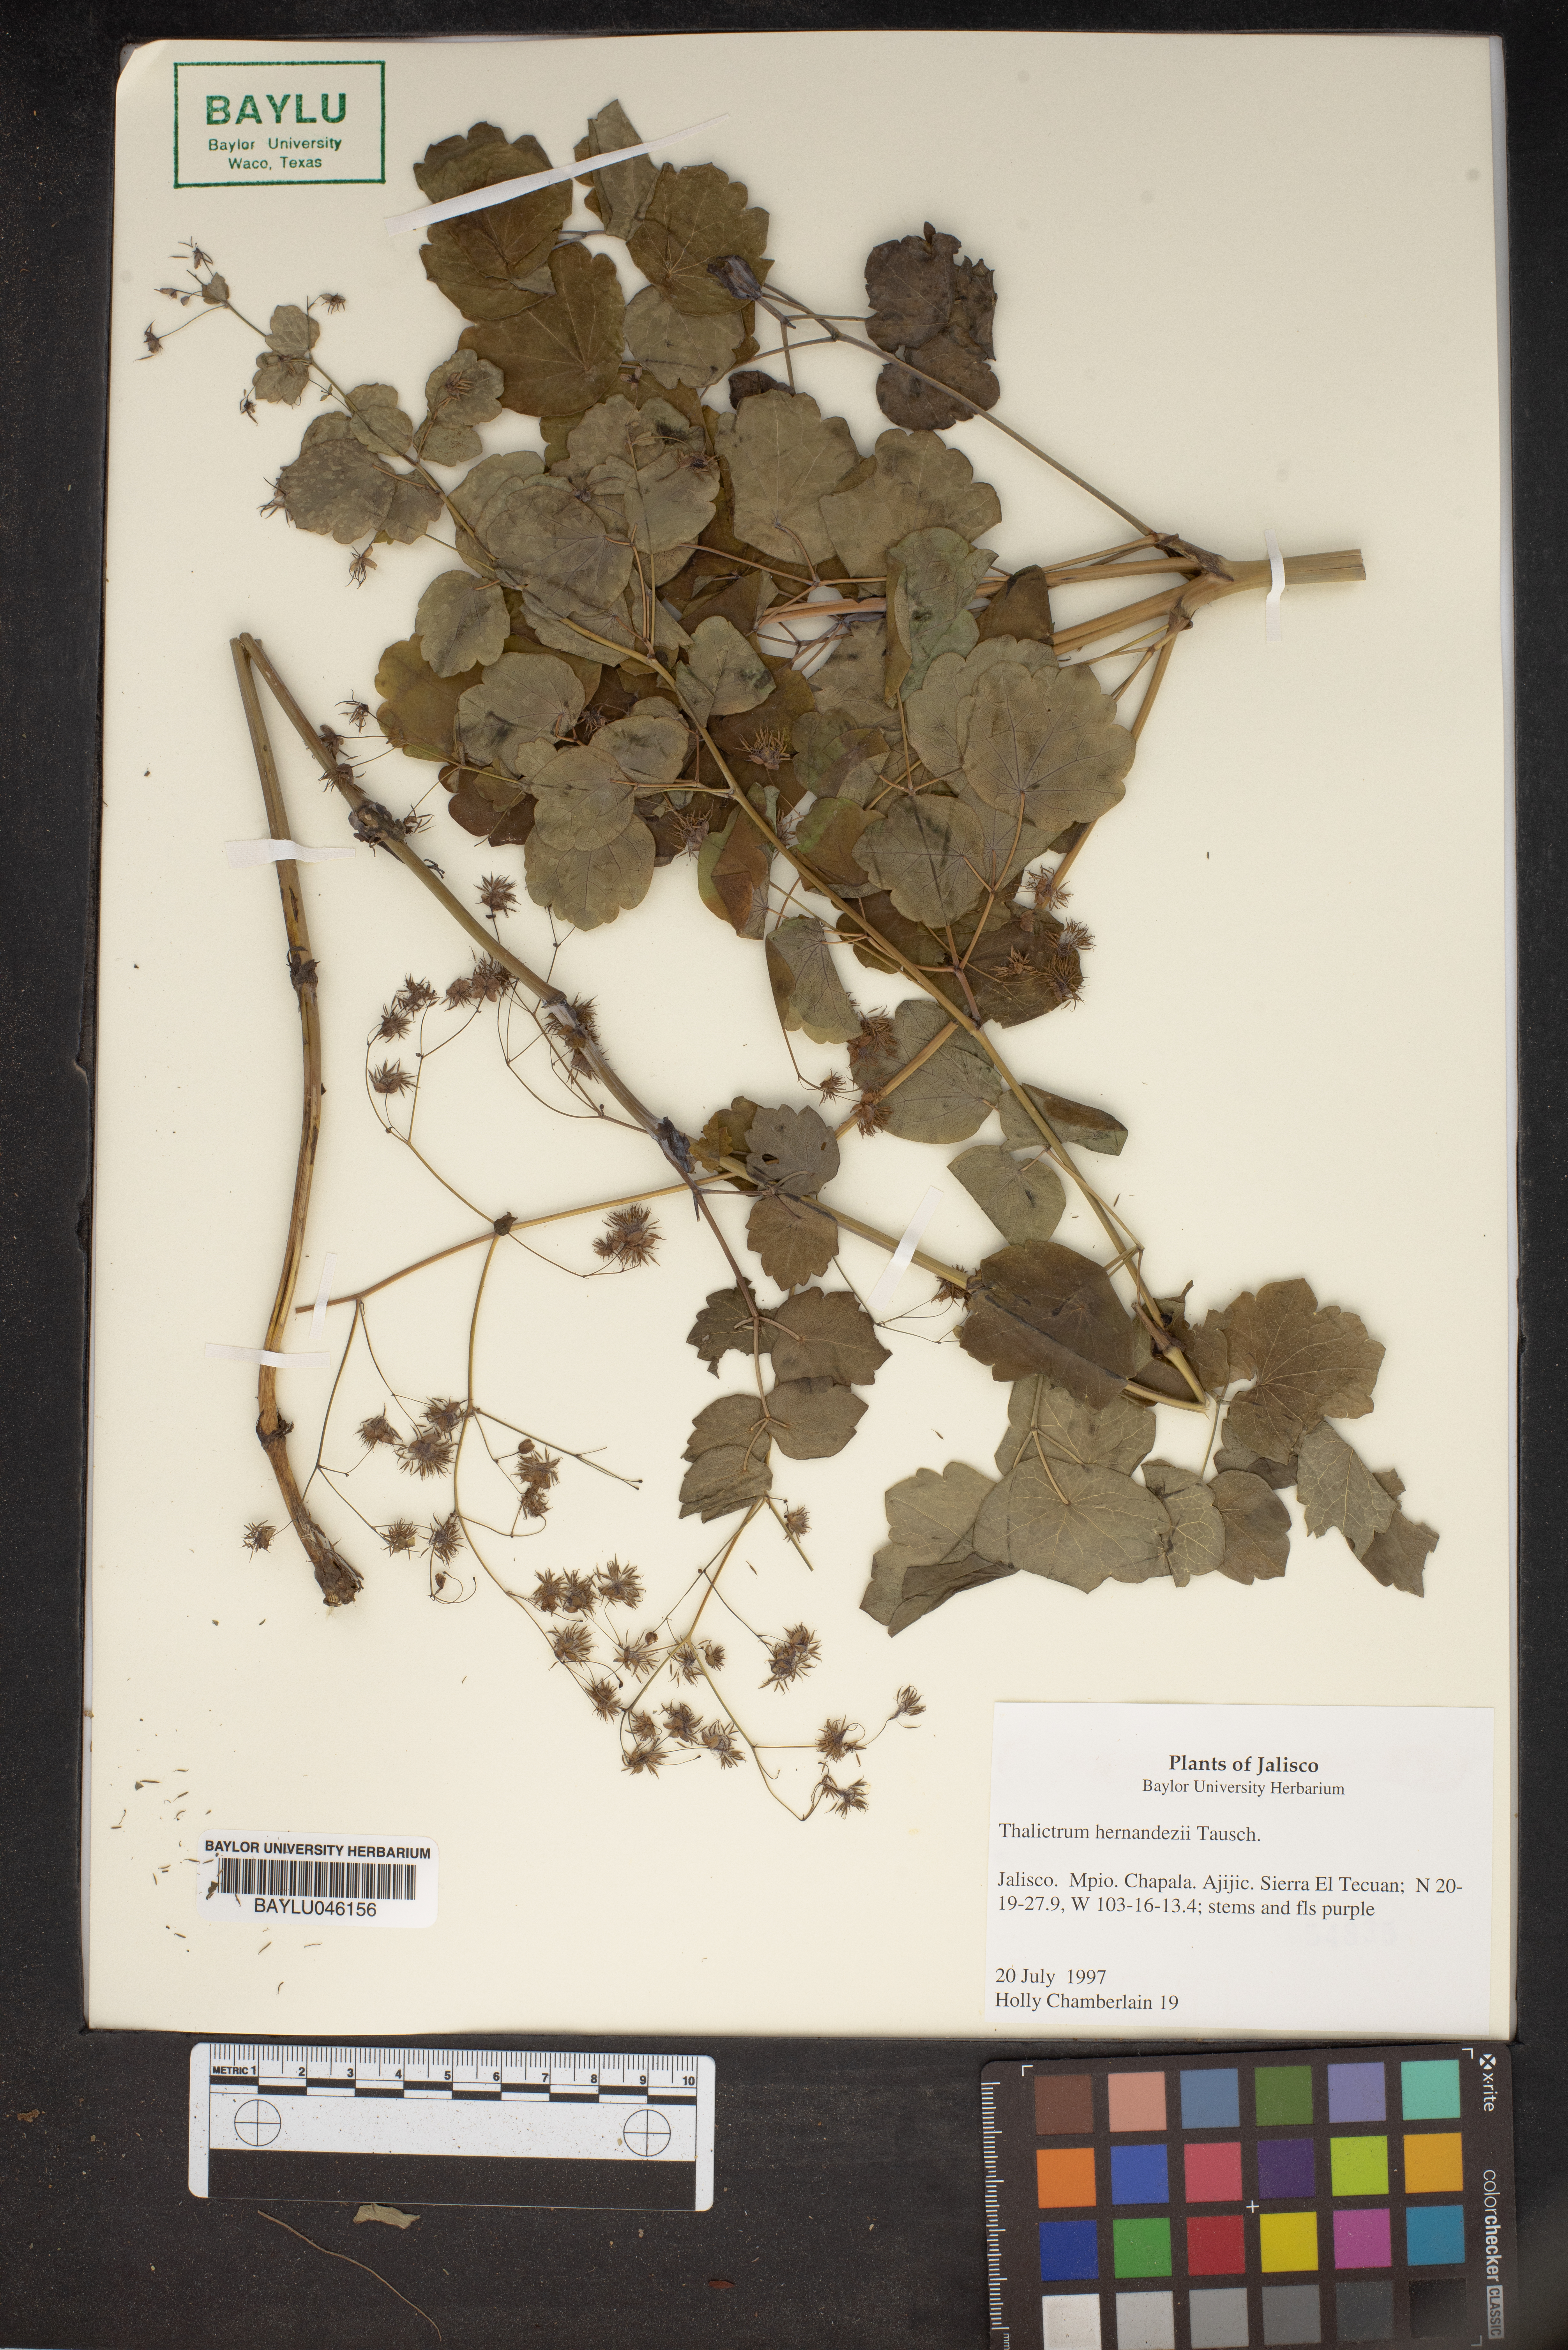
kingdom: Plantae
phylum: Tracheophyta
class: Magnoliopsida
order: Ranunculales
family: Ranunculaceae
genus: Thalictrum
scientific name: Thalictrum hernandezii
